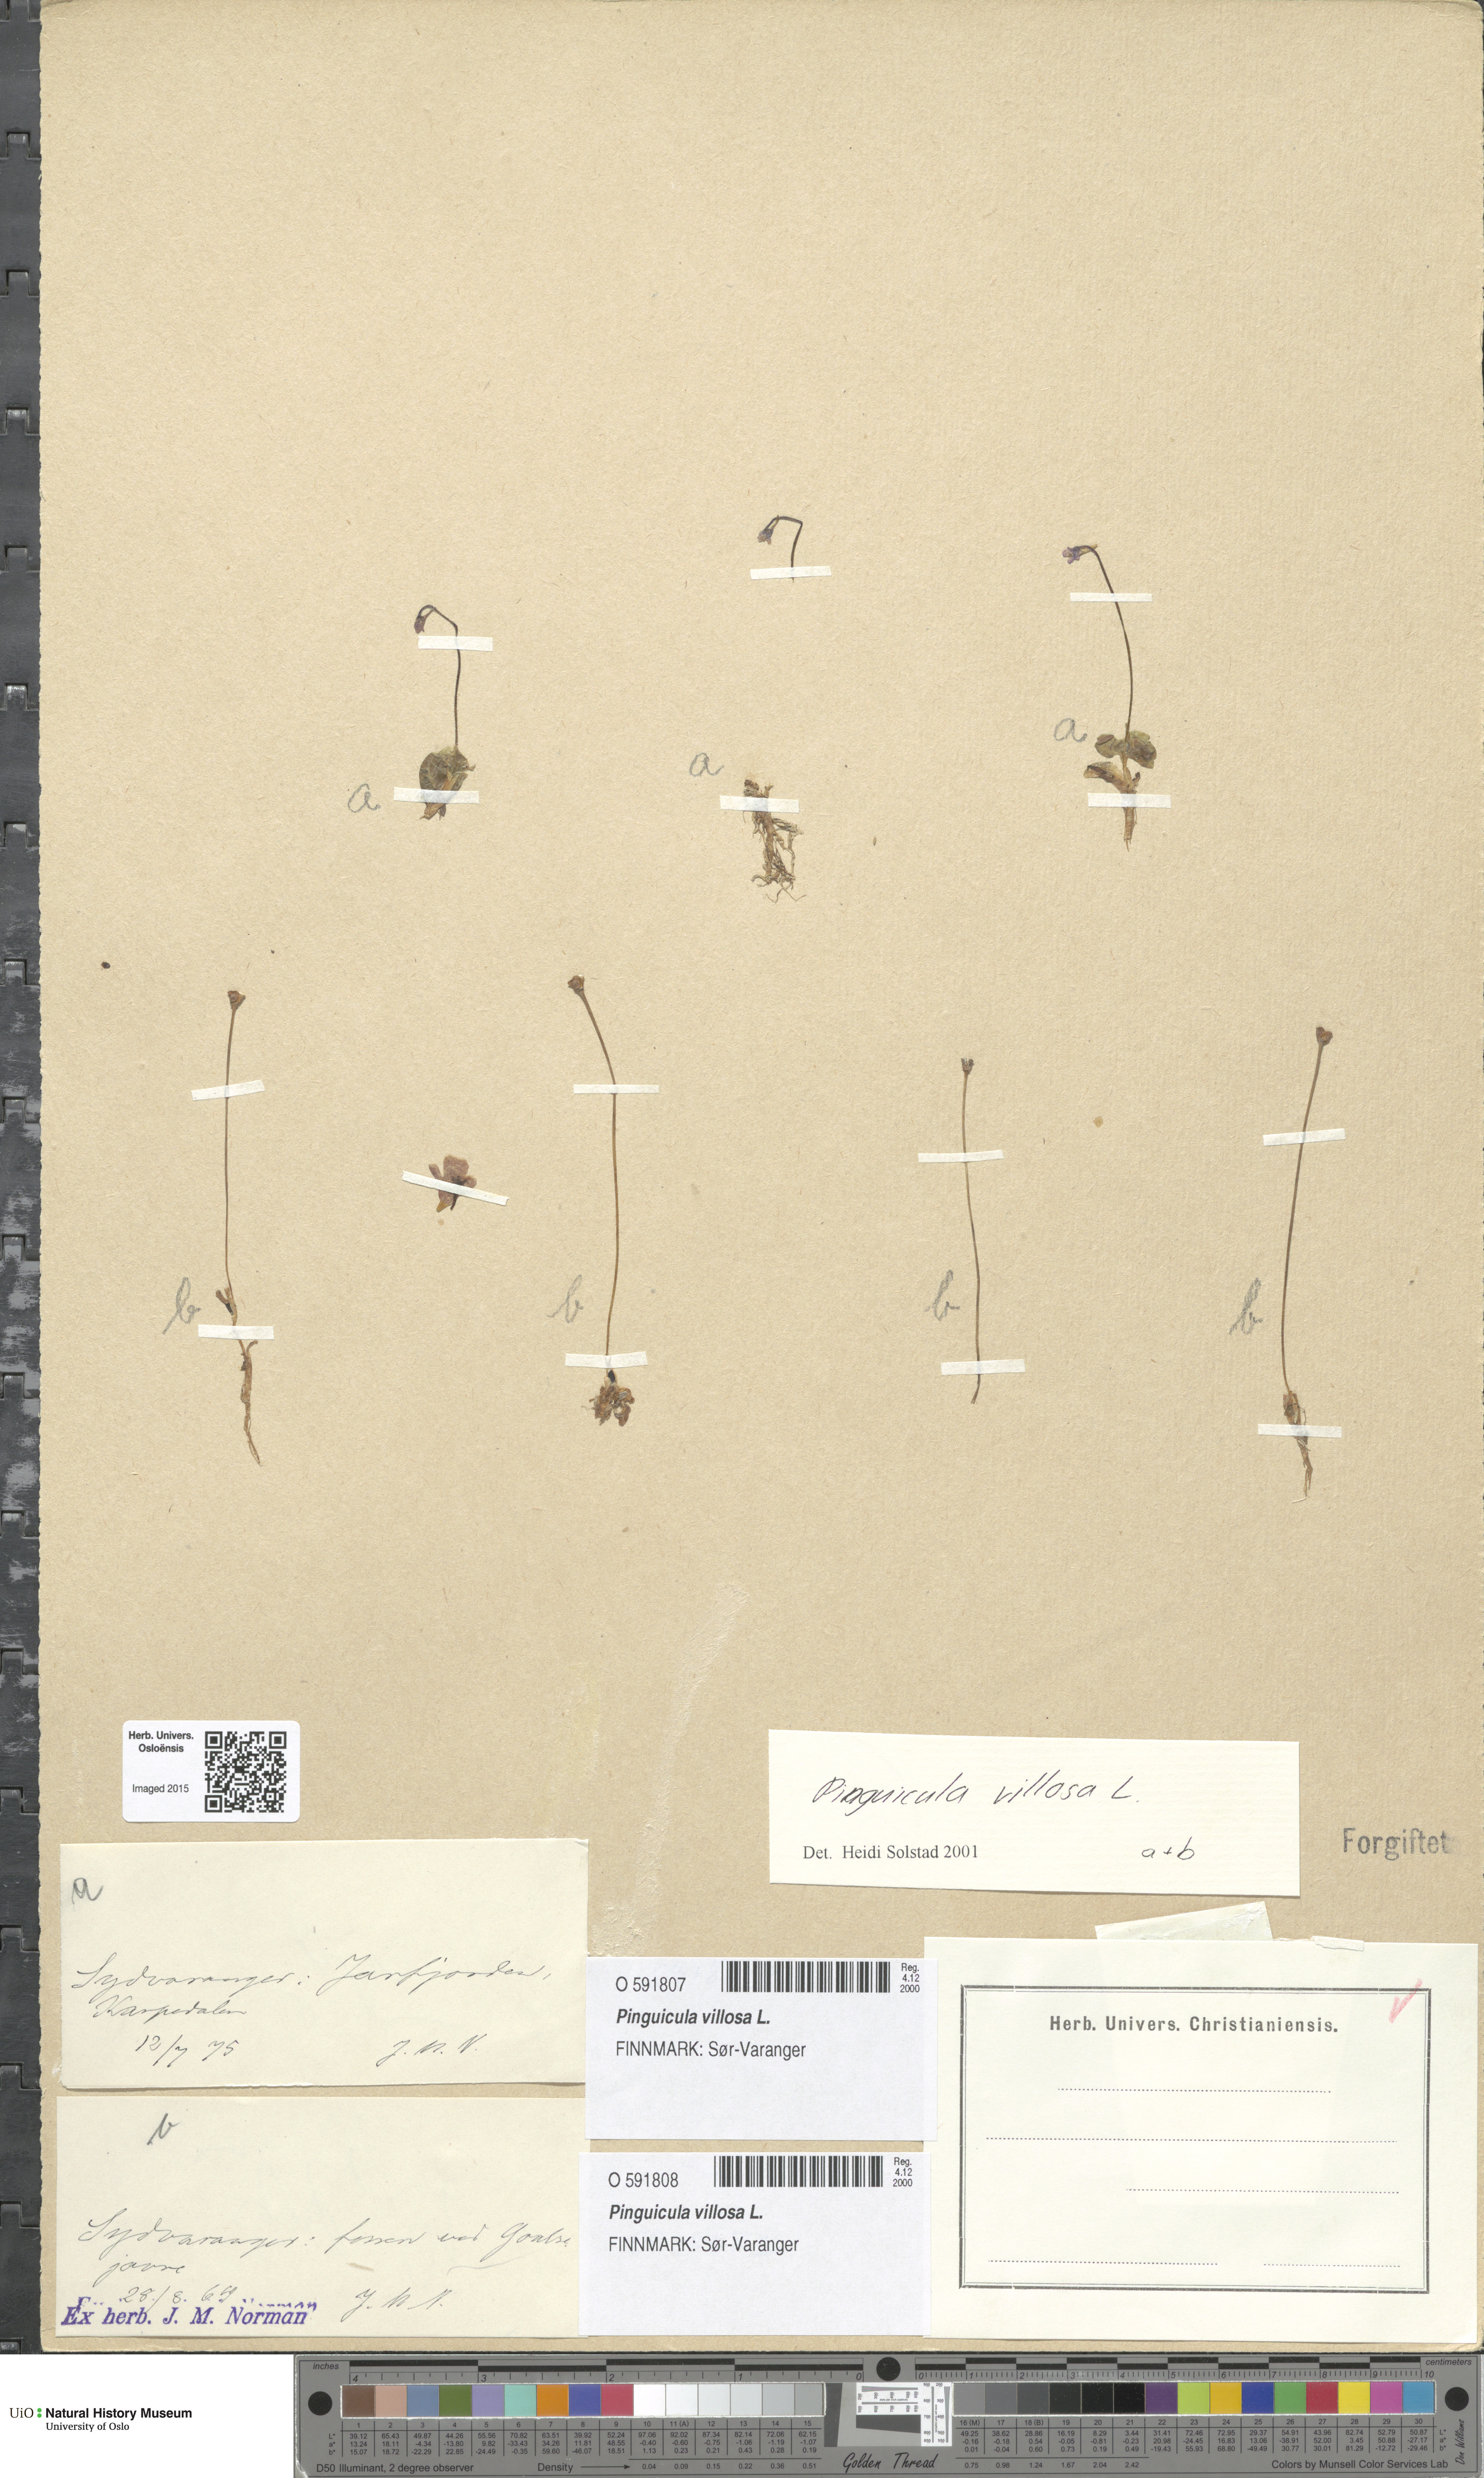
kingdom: Plantae
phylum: Tracheophyta
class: Magnoliopsida
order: Lamiales
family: Lentibulariaceae
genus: Pinguicula
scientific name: Pinguicula villosa
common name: Hairy butterwort
